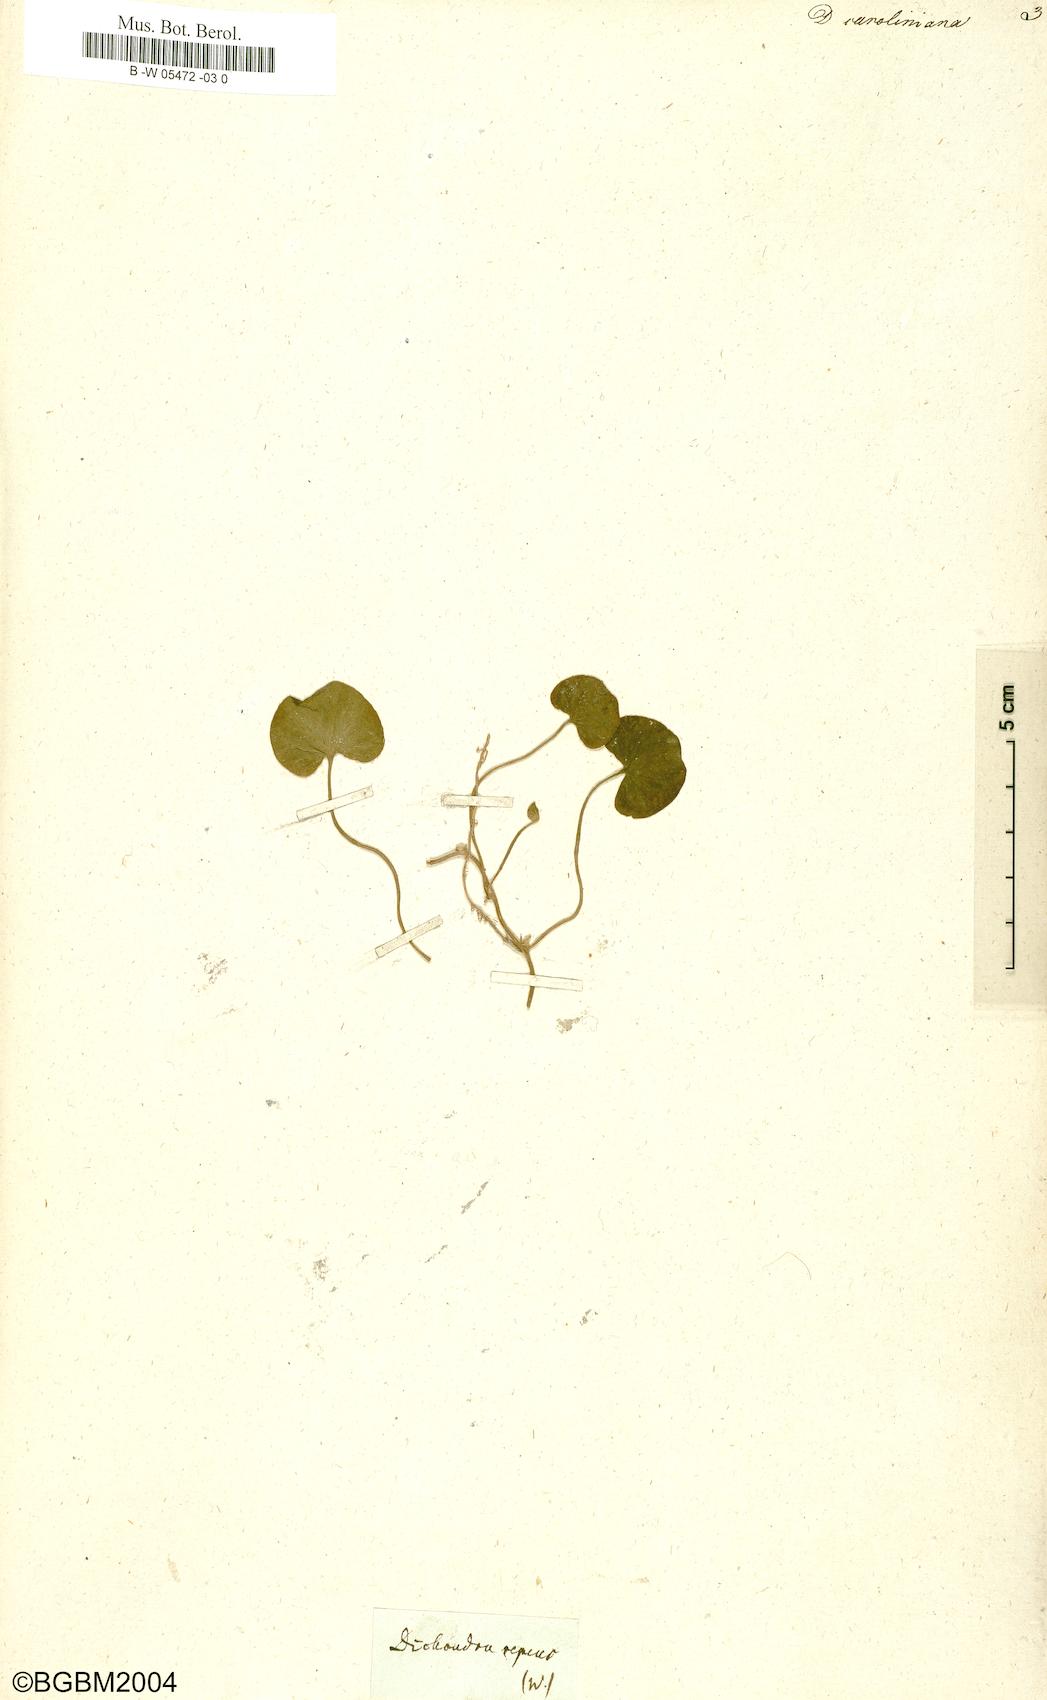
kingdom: Plantae
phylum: Tracheophyta
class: Magnoliopsida
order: Solanales
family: Convolvulaceae
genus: Dichondra
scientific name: Dichondra carolinensis
